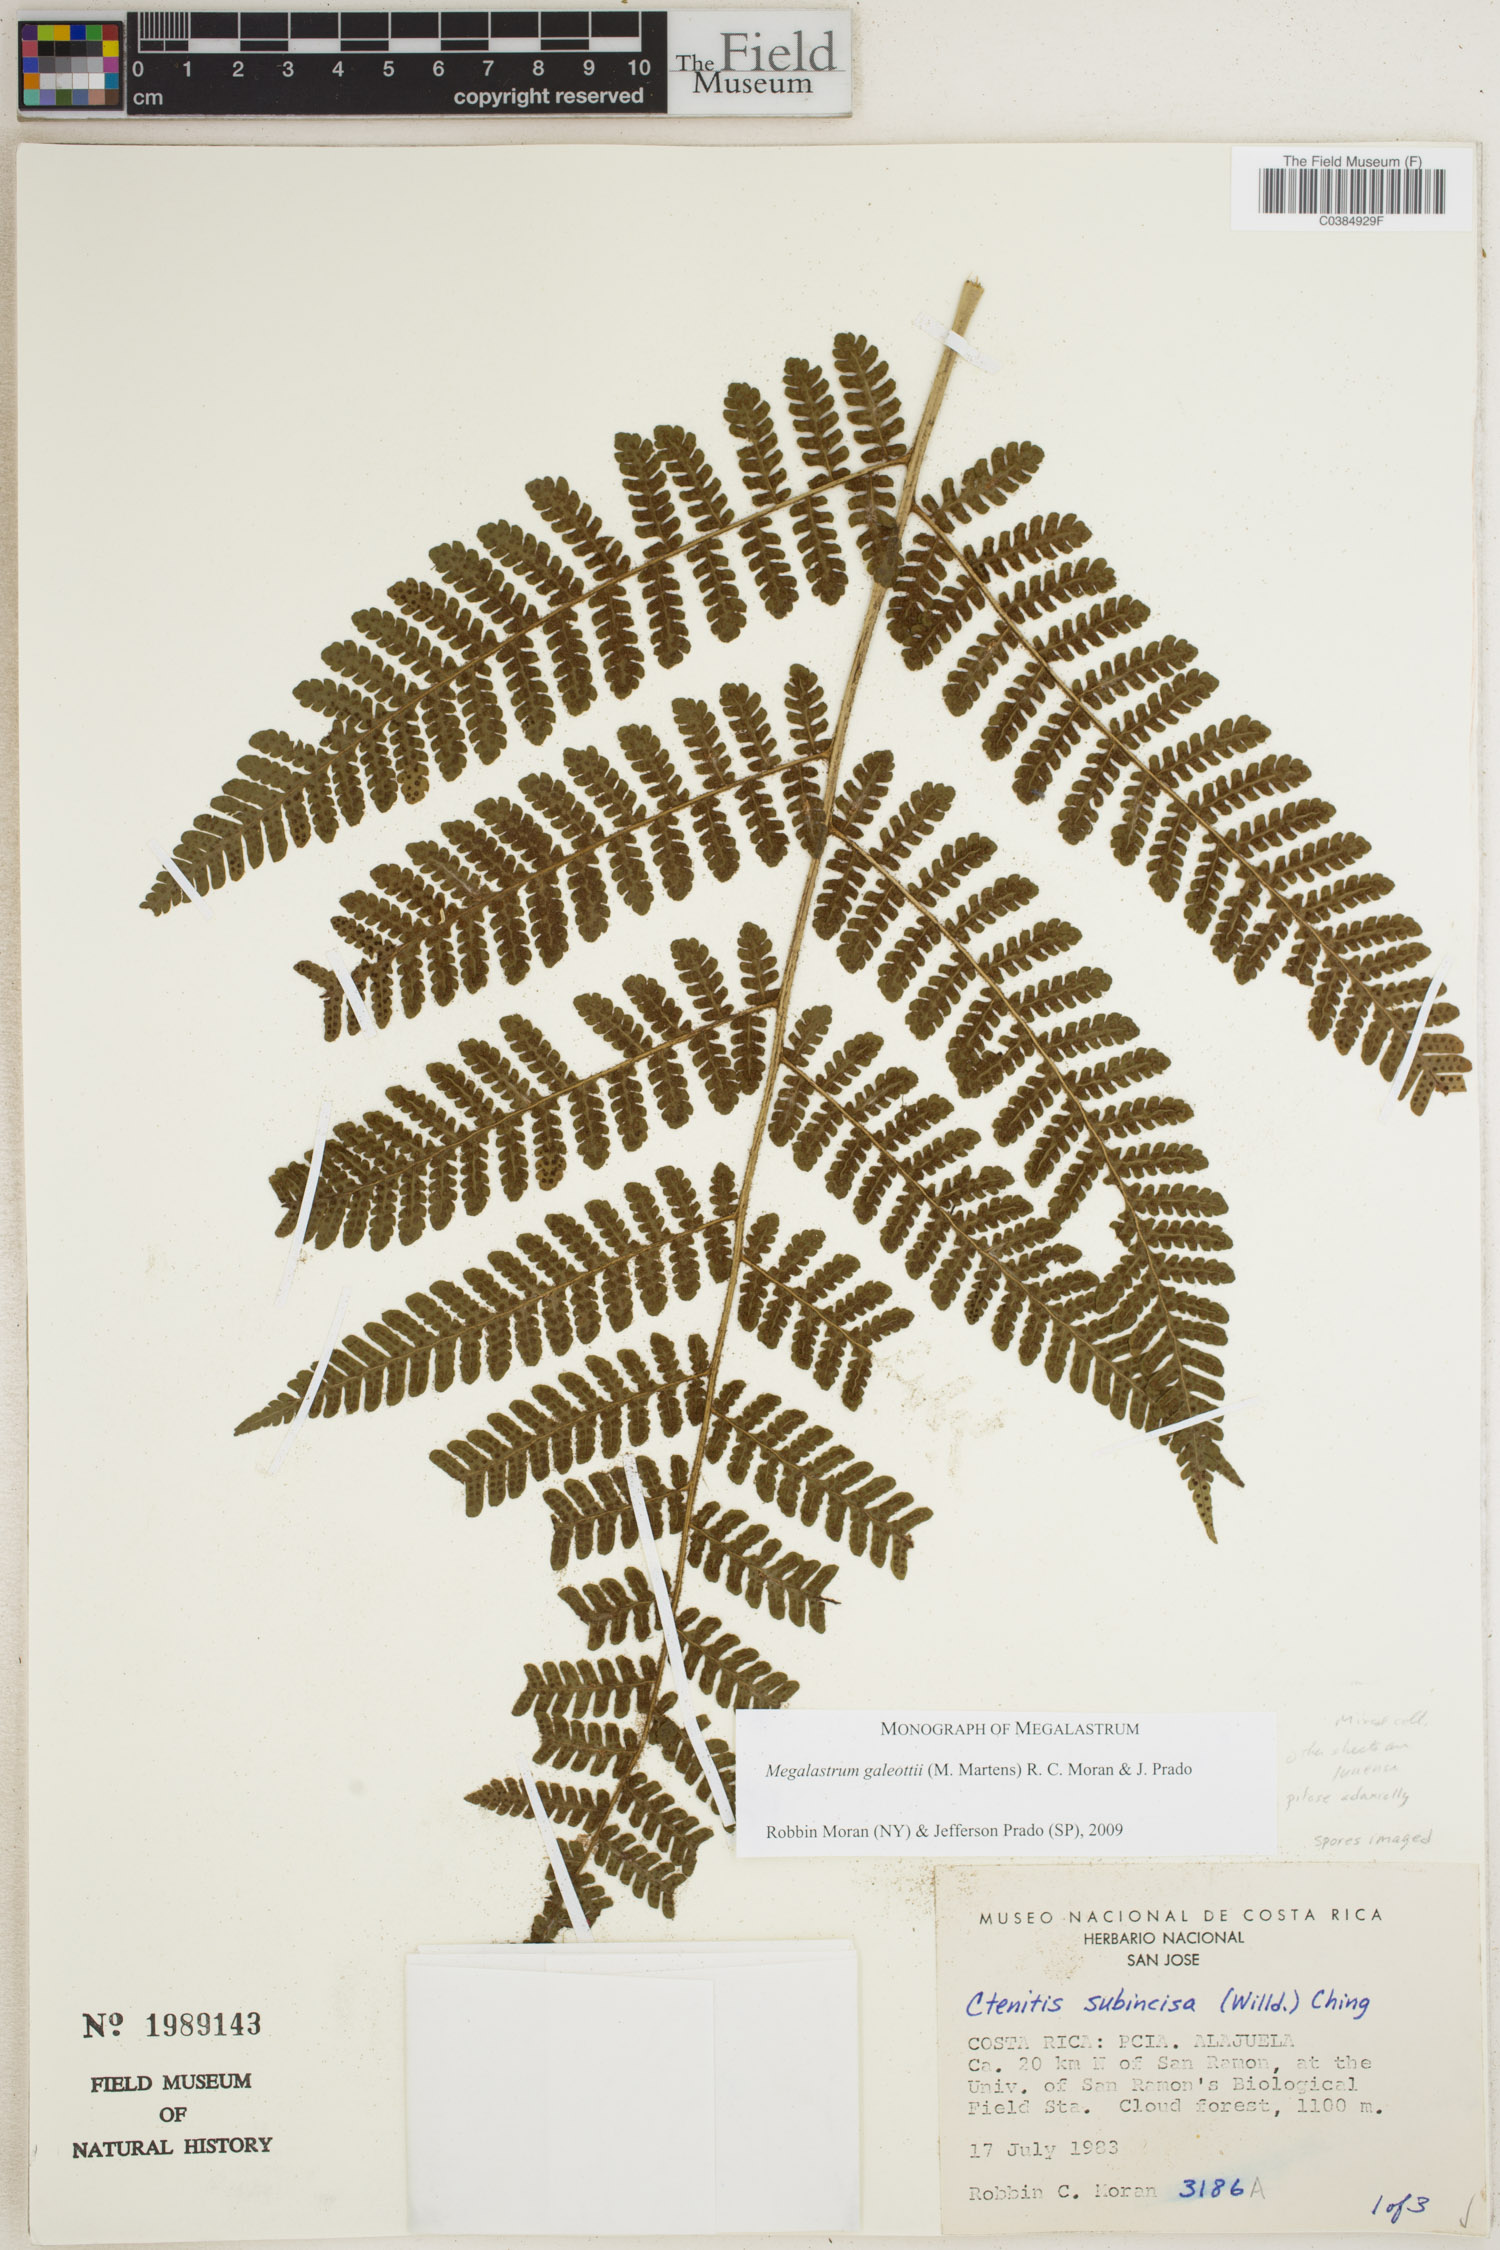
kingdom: Plantae
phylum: Tracheophyta
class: Polypodiopsida
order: Polypodiales
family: Dryopteridaceae
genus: Megalastrum
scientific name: Megalastrum galeottii
